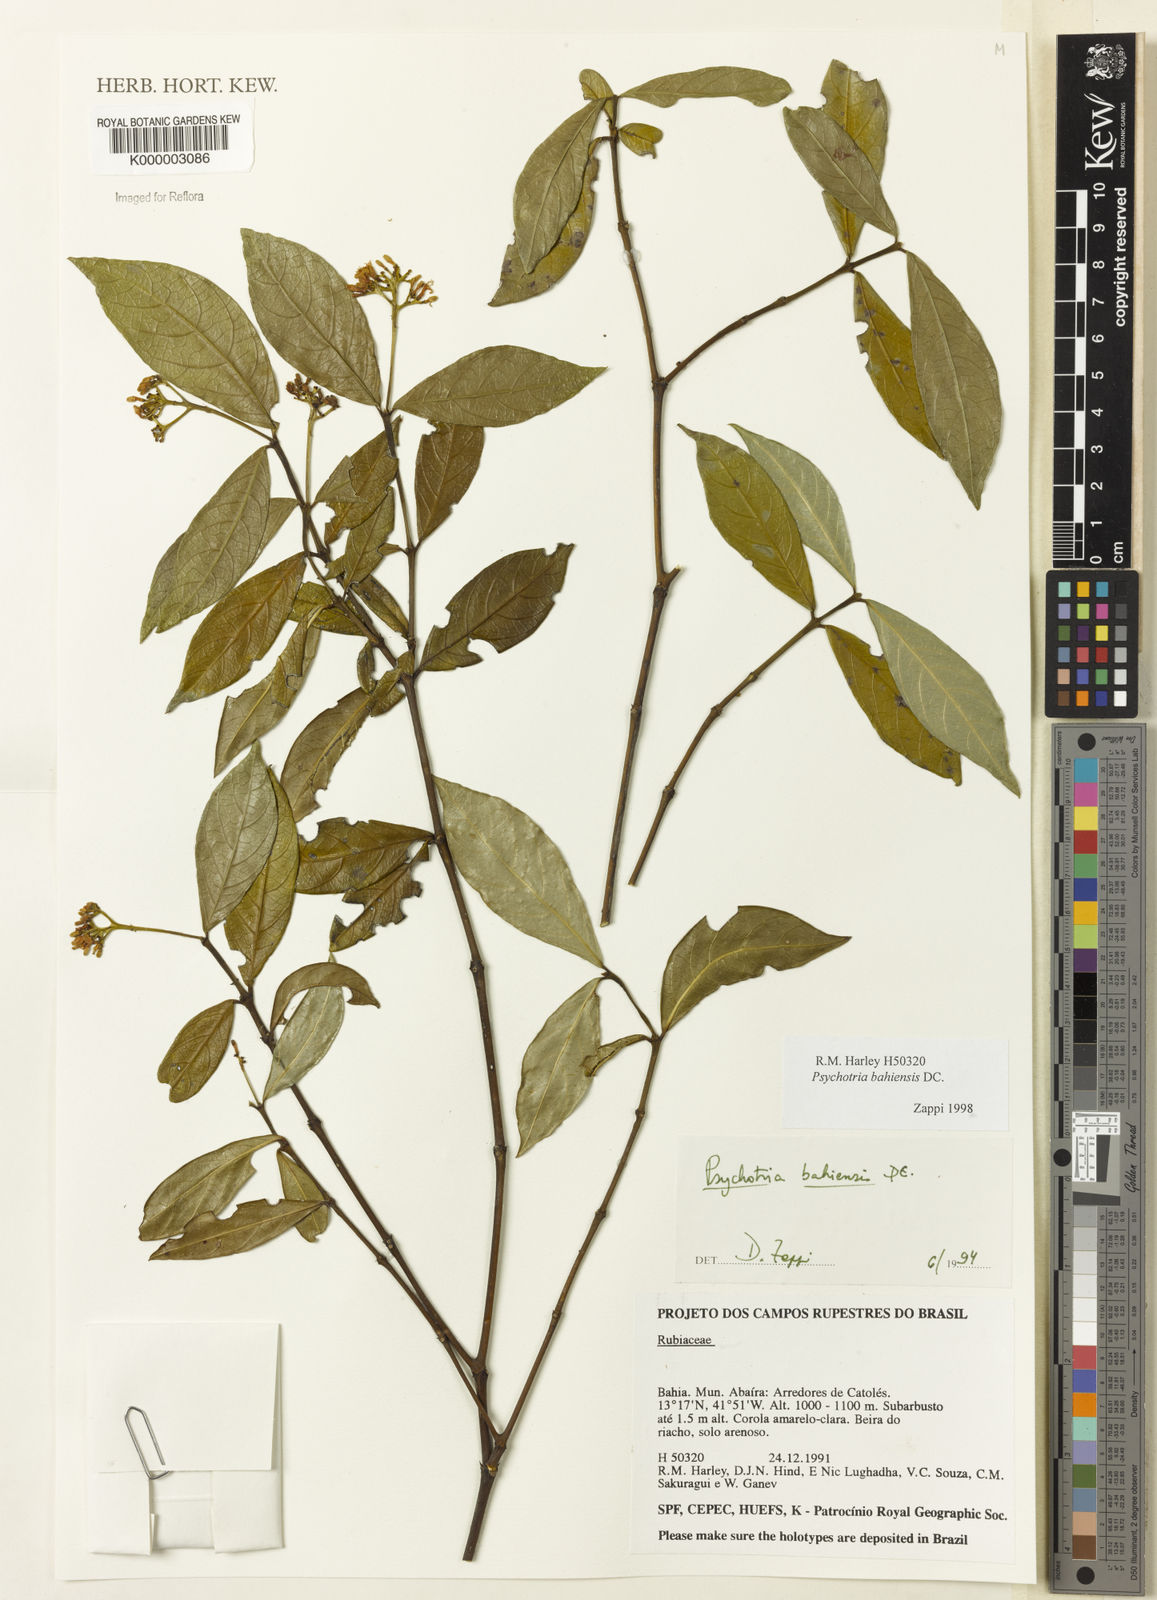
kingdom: Plantae
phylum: Tracheophyta
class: Magnoliopsida
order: Gentianales
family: Rubiaceae
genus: Psychotria
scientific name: Psychotria bahiensis
